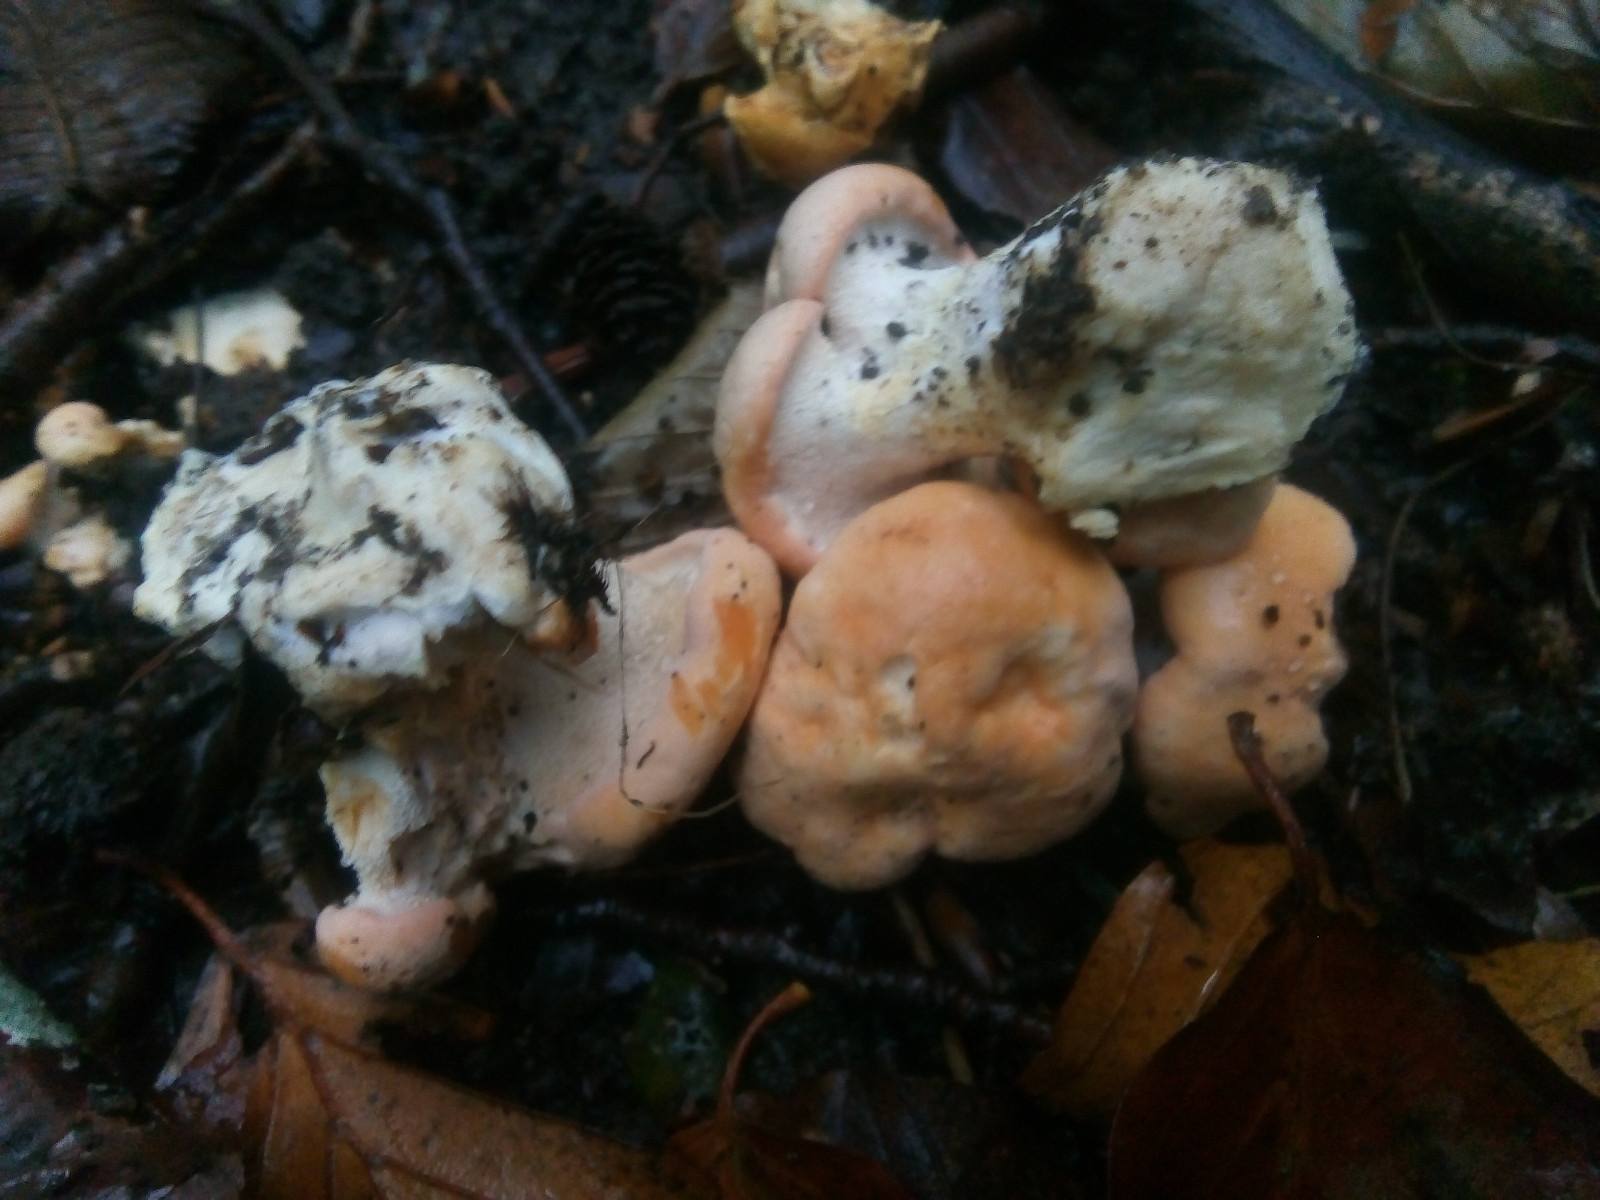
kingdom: Fungi
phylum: Basidiomycota
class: Agaricomycetes
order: Cantharellales
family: Hydnaceae
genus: Hydnum
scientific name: Hydnum slovenicum
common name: slovensk pigsvamp
